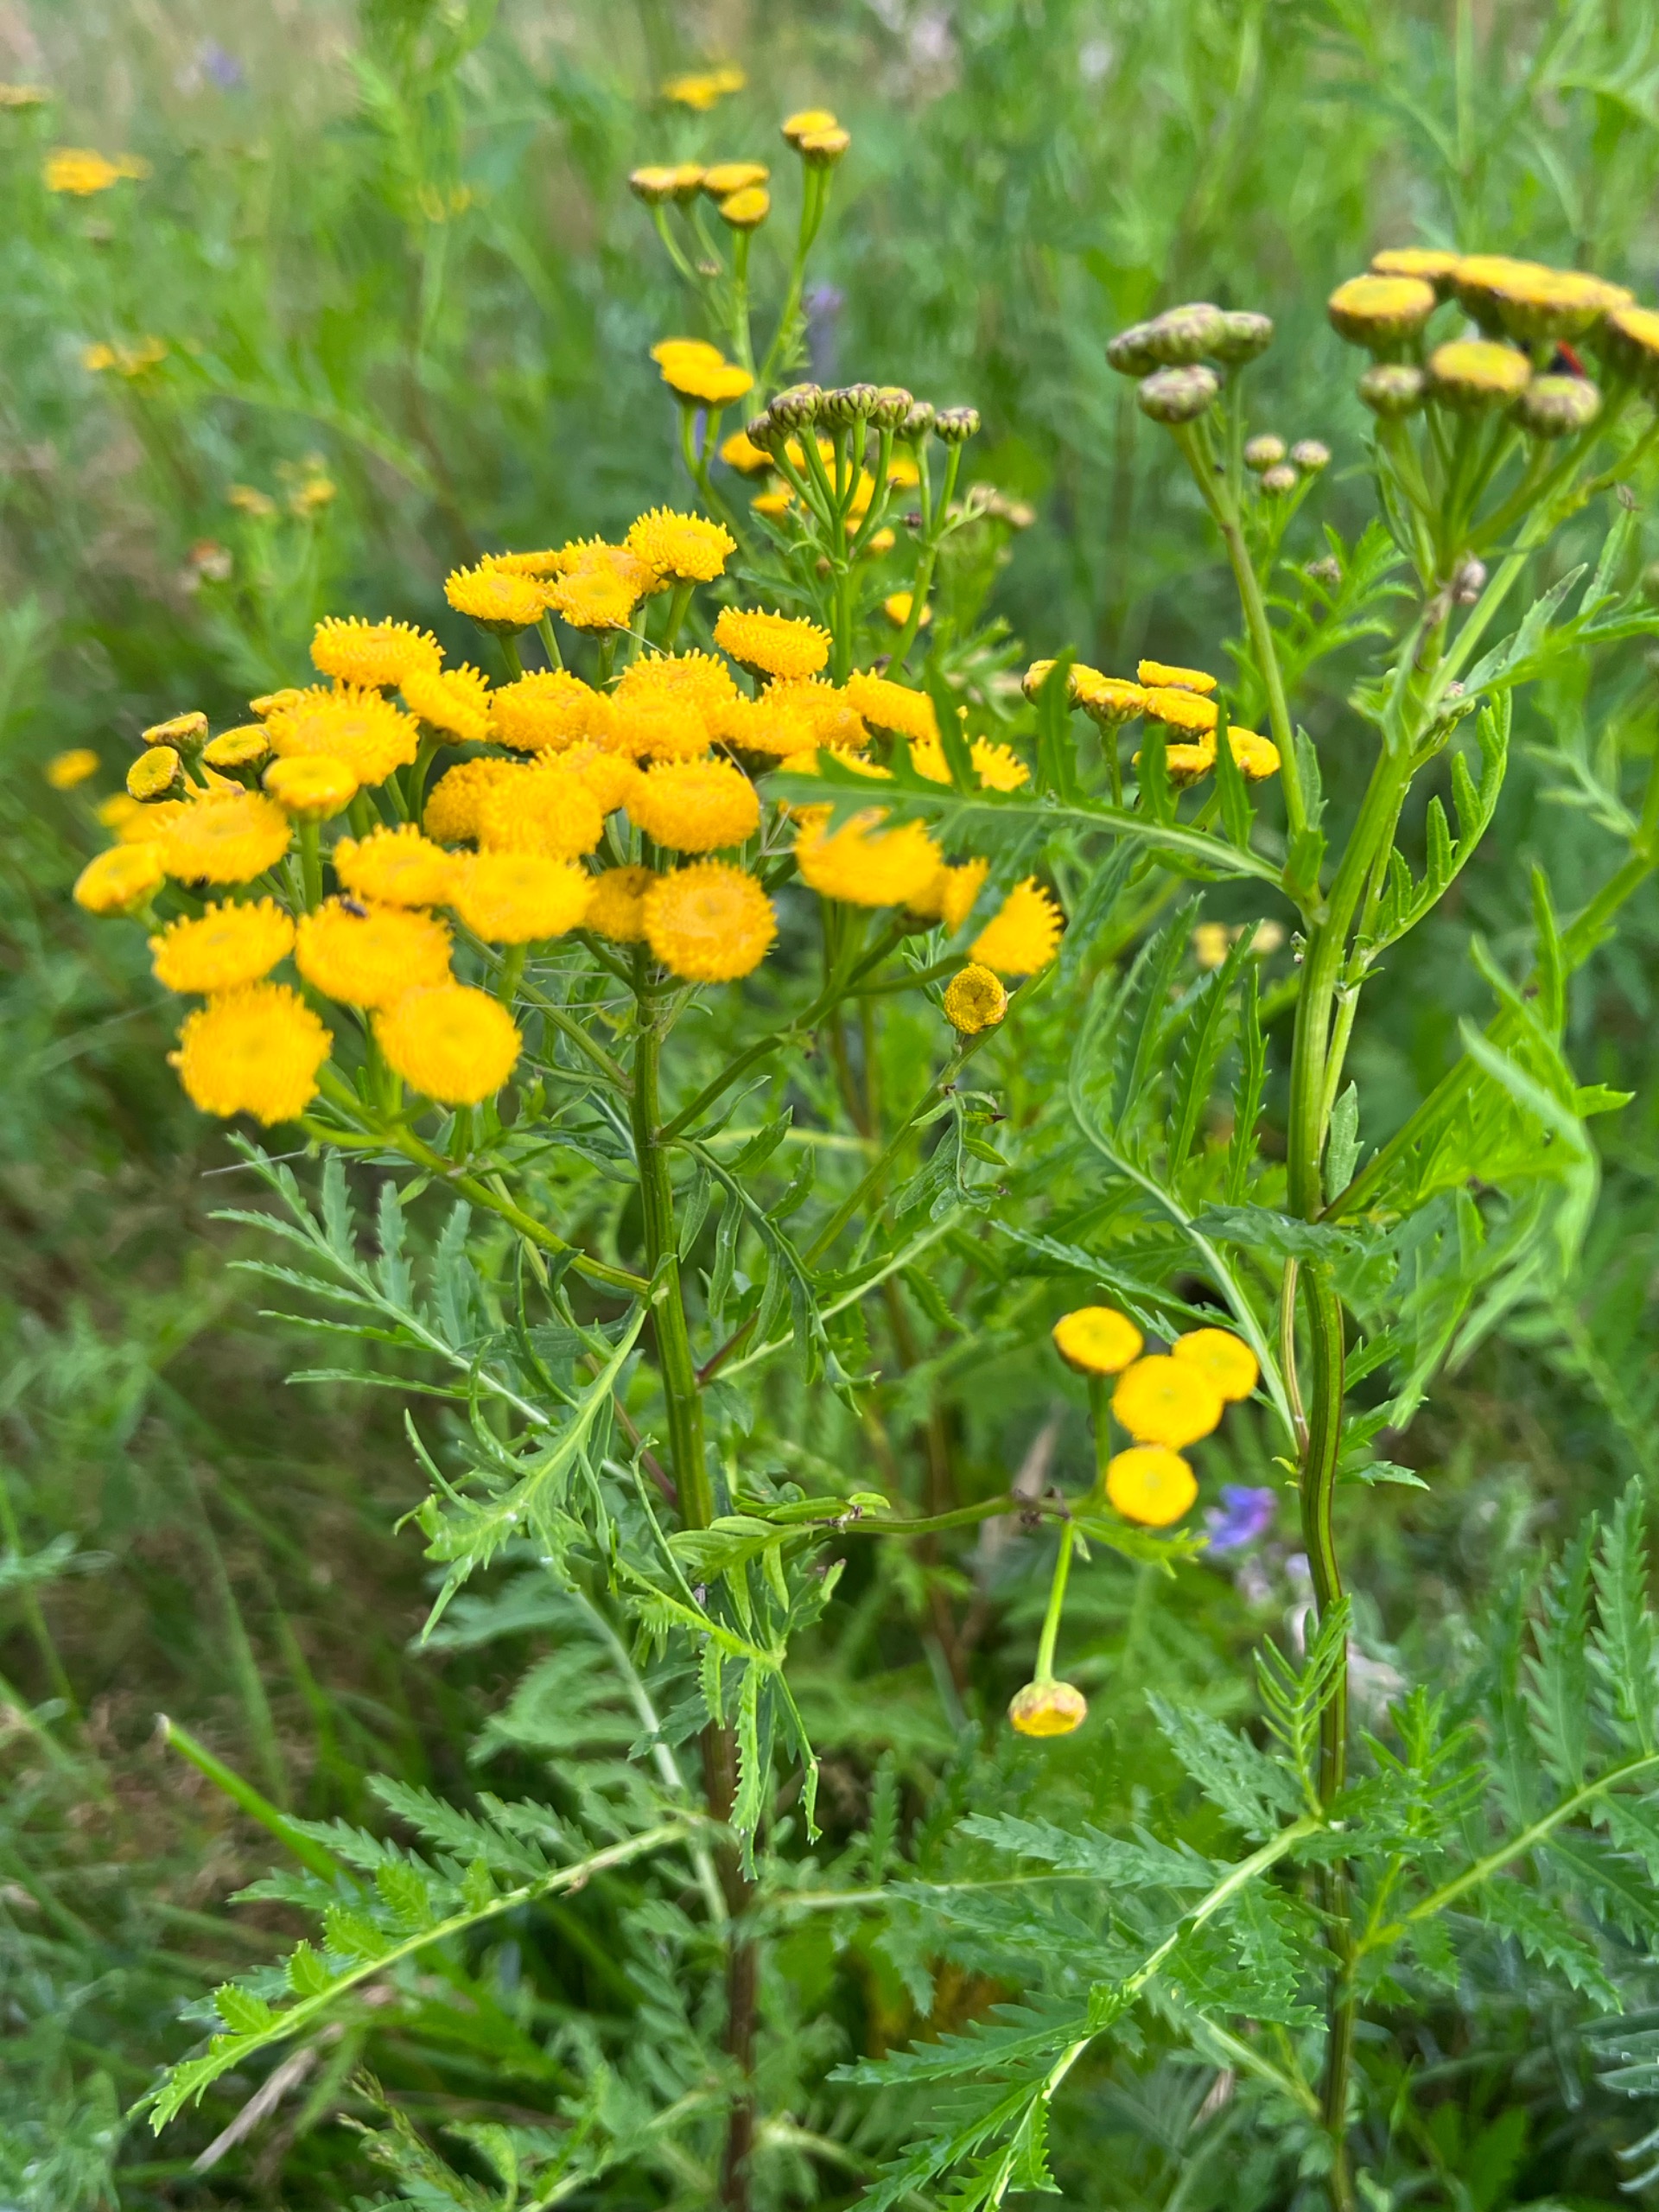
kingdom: Plantae
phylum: Tracheophyta
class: Magnoliopsida
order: Asterales
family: Asteraceae
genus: Tanacetum
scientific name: Tanacetum vulgare
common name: Rejnfan
